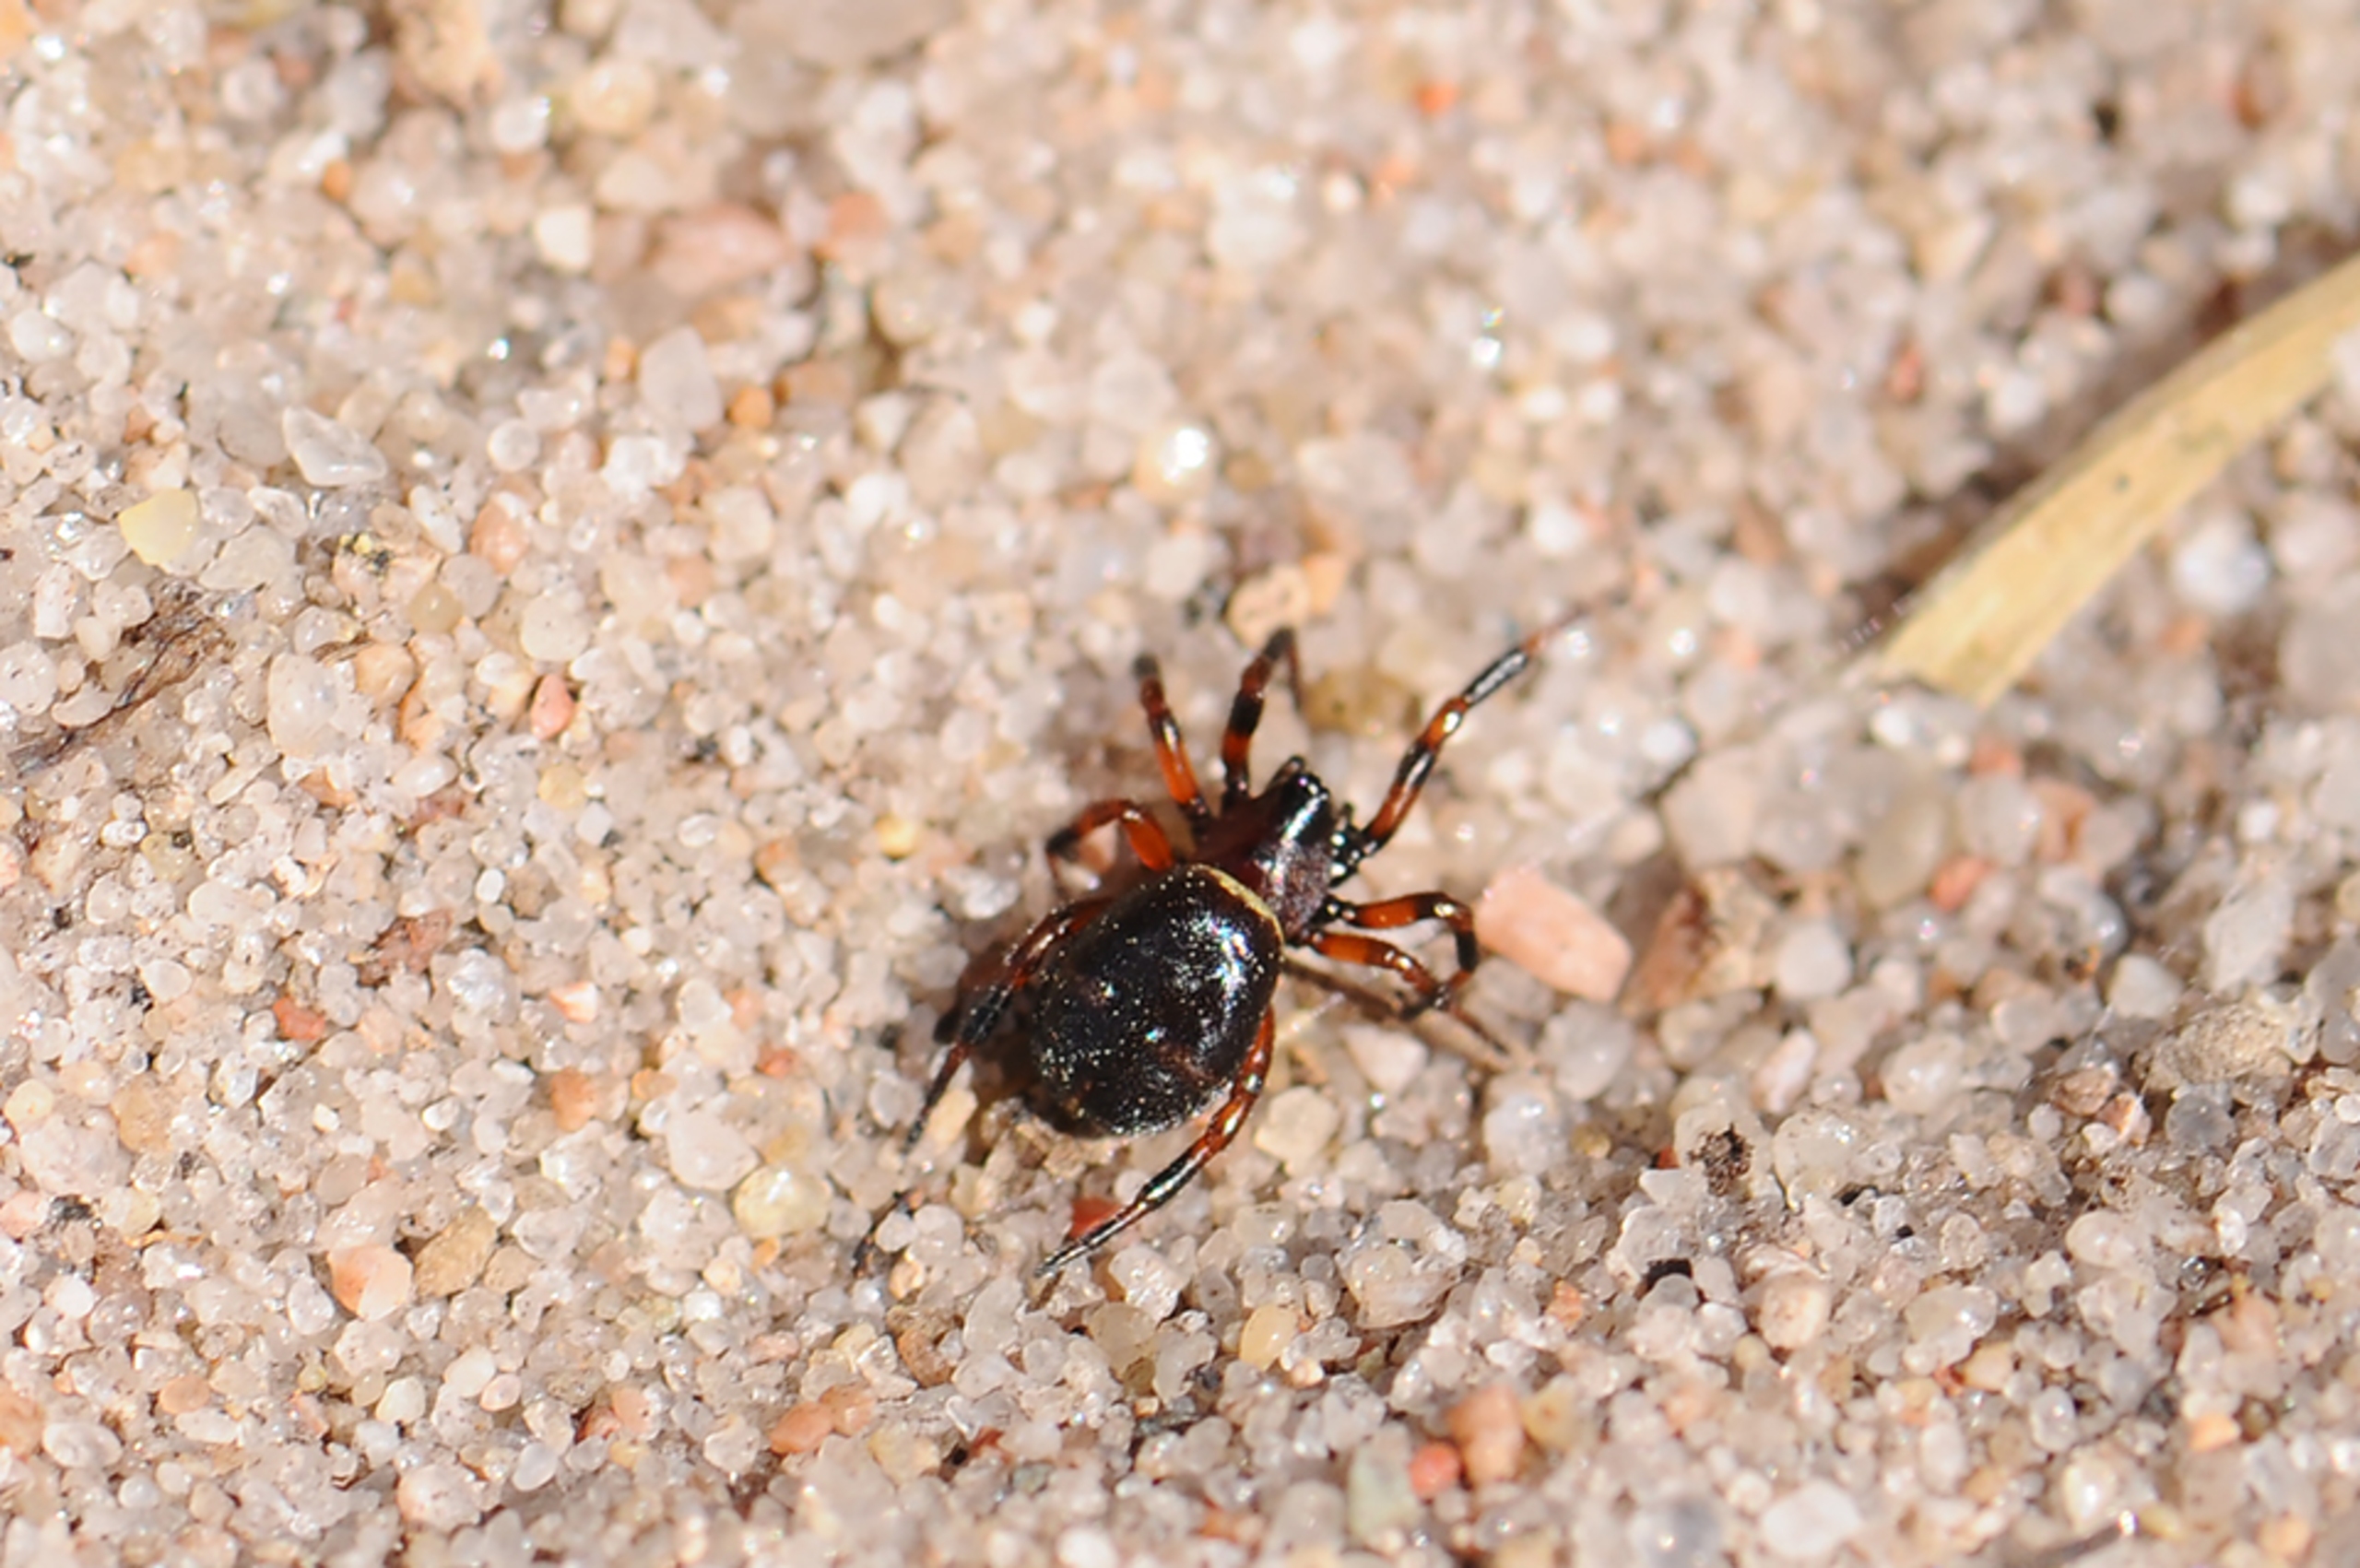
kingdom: Animalia
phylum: Arthropoda
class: Arachnida
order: Araneae
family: Theridiidae
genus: Asagena
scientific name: Asagena phalerata
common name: Smuk voksedderkop
